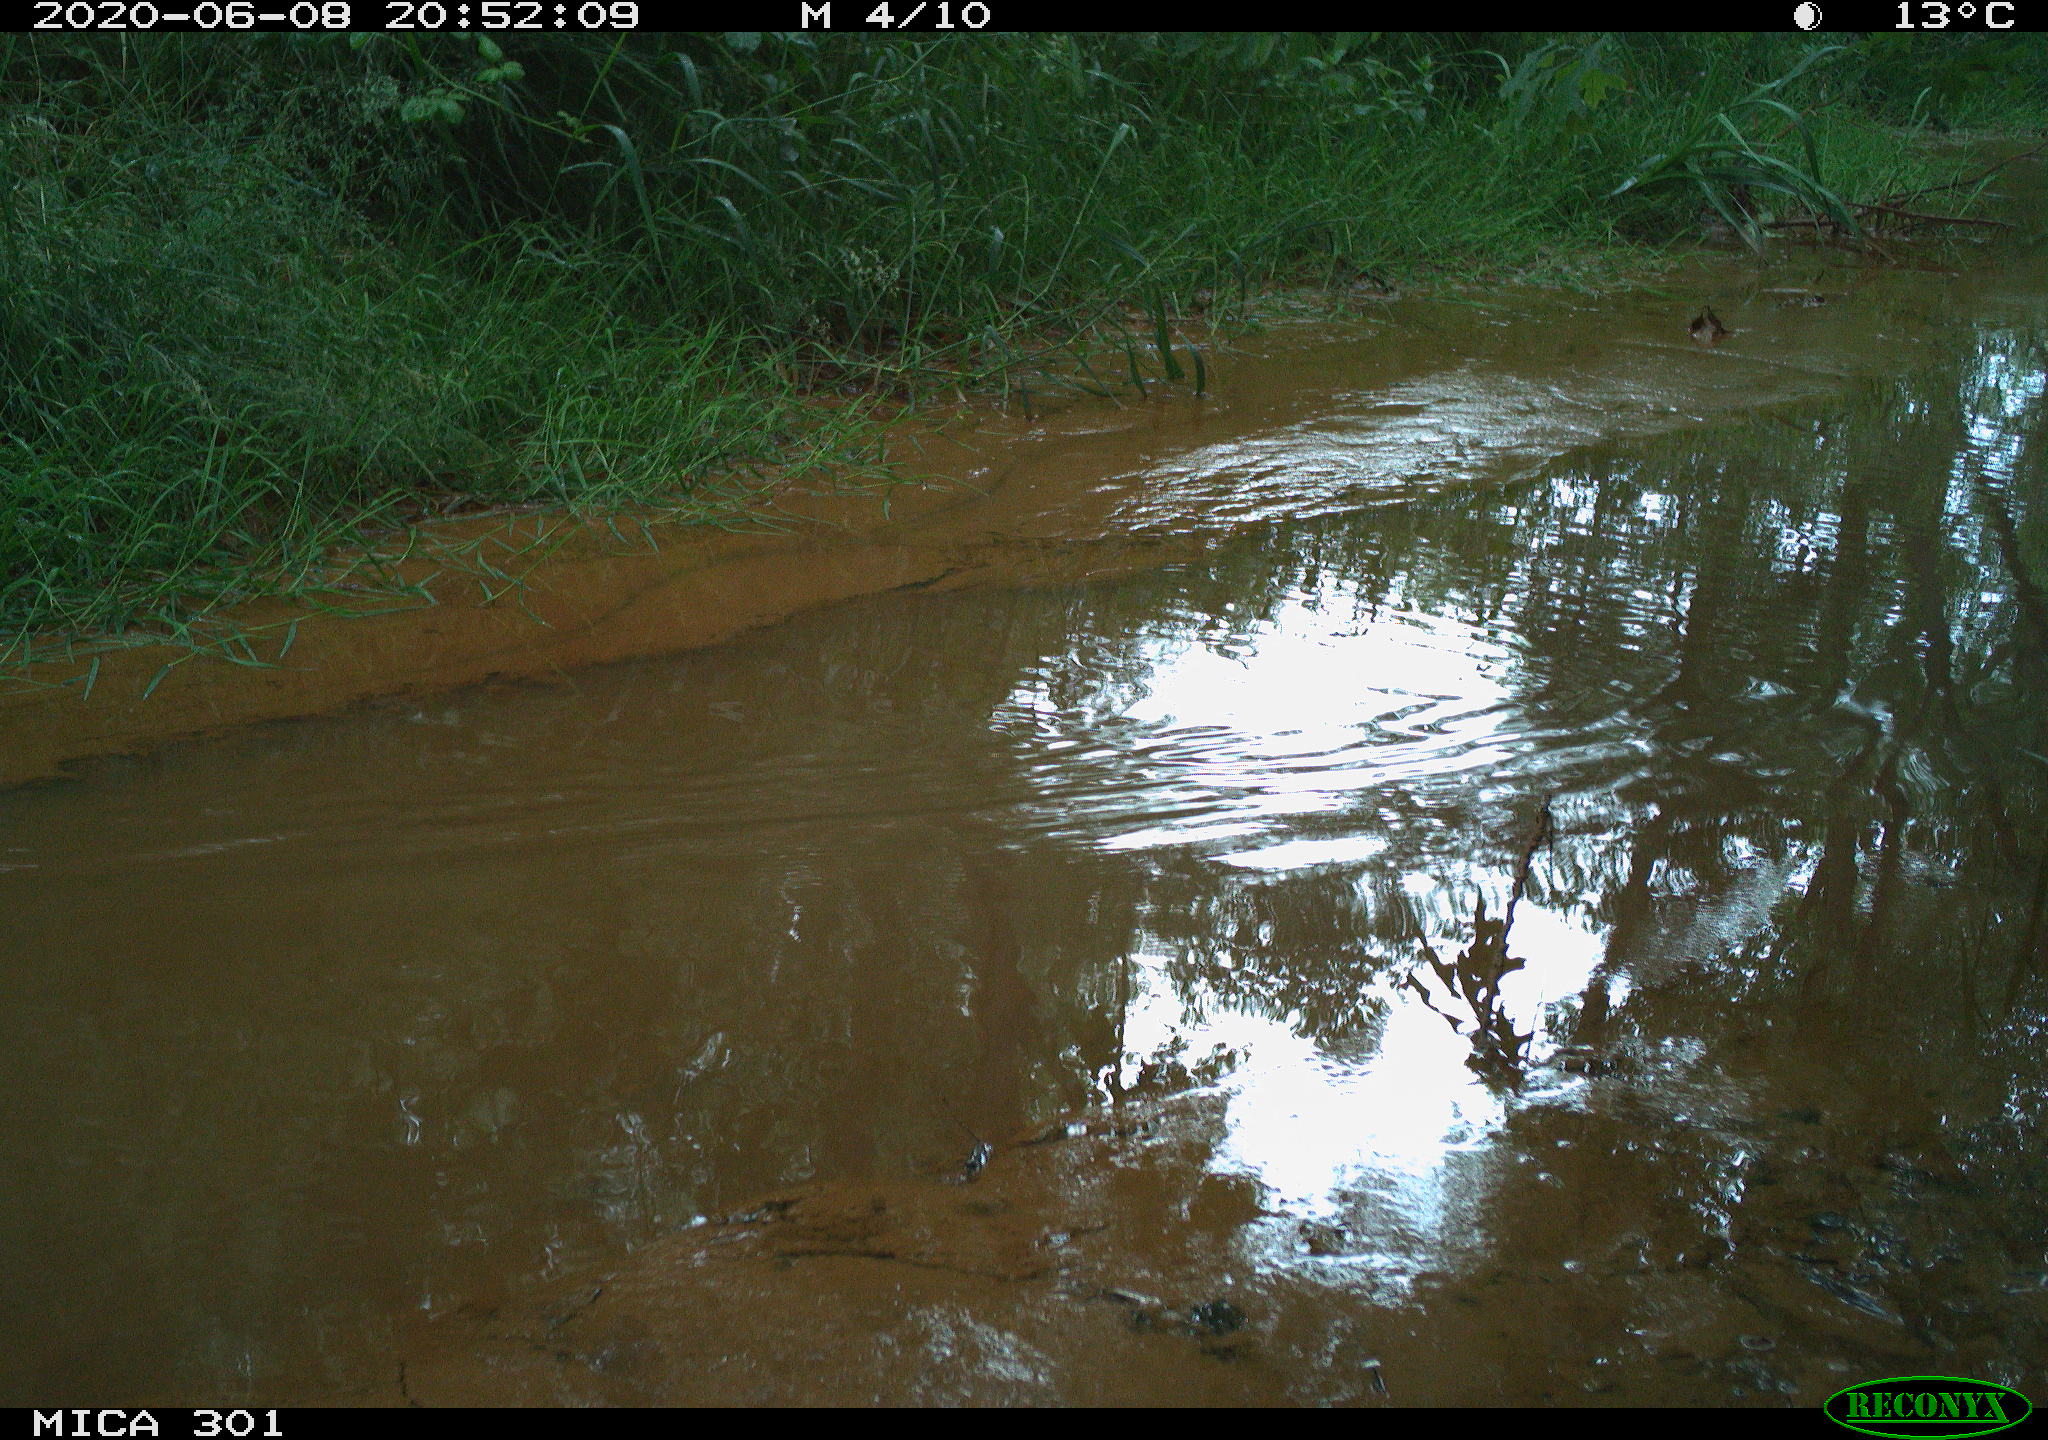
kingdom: Animalia
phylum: Chordata
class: Aves
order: Anseriformes
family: Anatidae
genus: Aix
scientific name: Aix galericulata
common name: Mandarin duck
